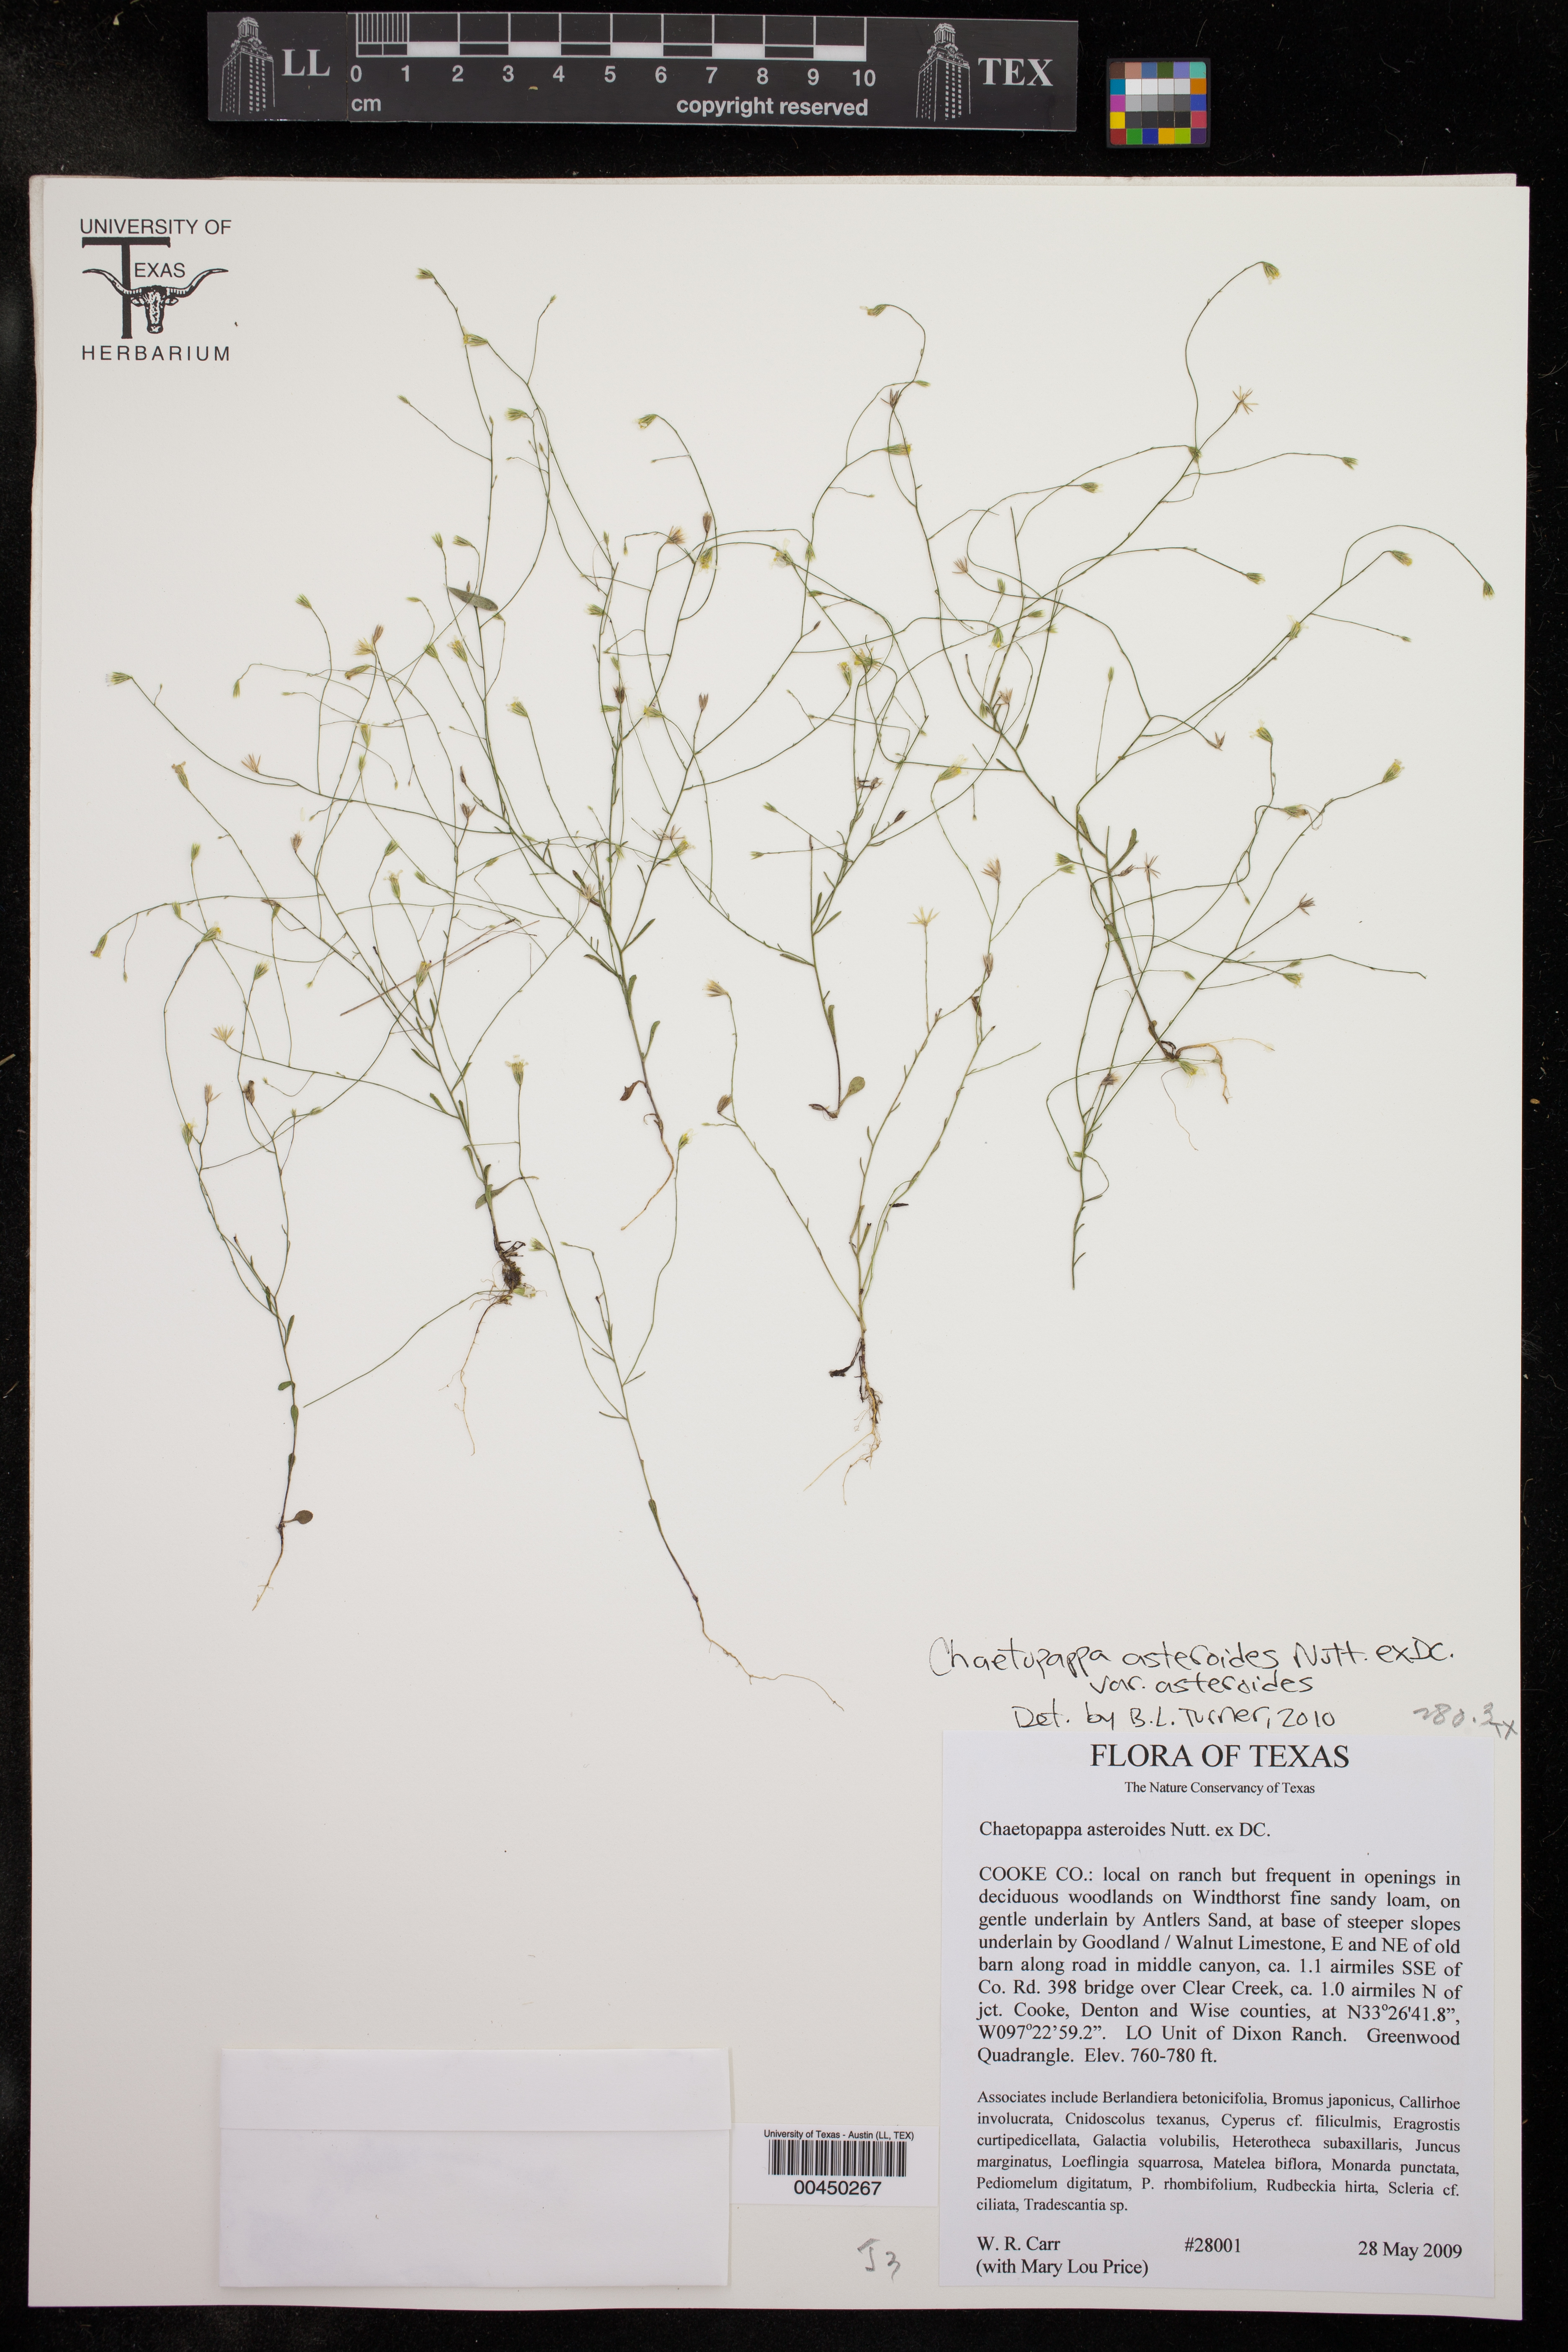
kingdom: Plantae
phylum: Tracheophyta
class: Magnoliopsida
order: Asterales
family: Asteraceae
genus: Chaetopappa
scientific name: Chaetopappa asteroides
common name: Tiny lazy daisy
